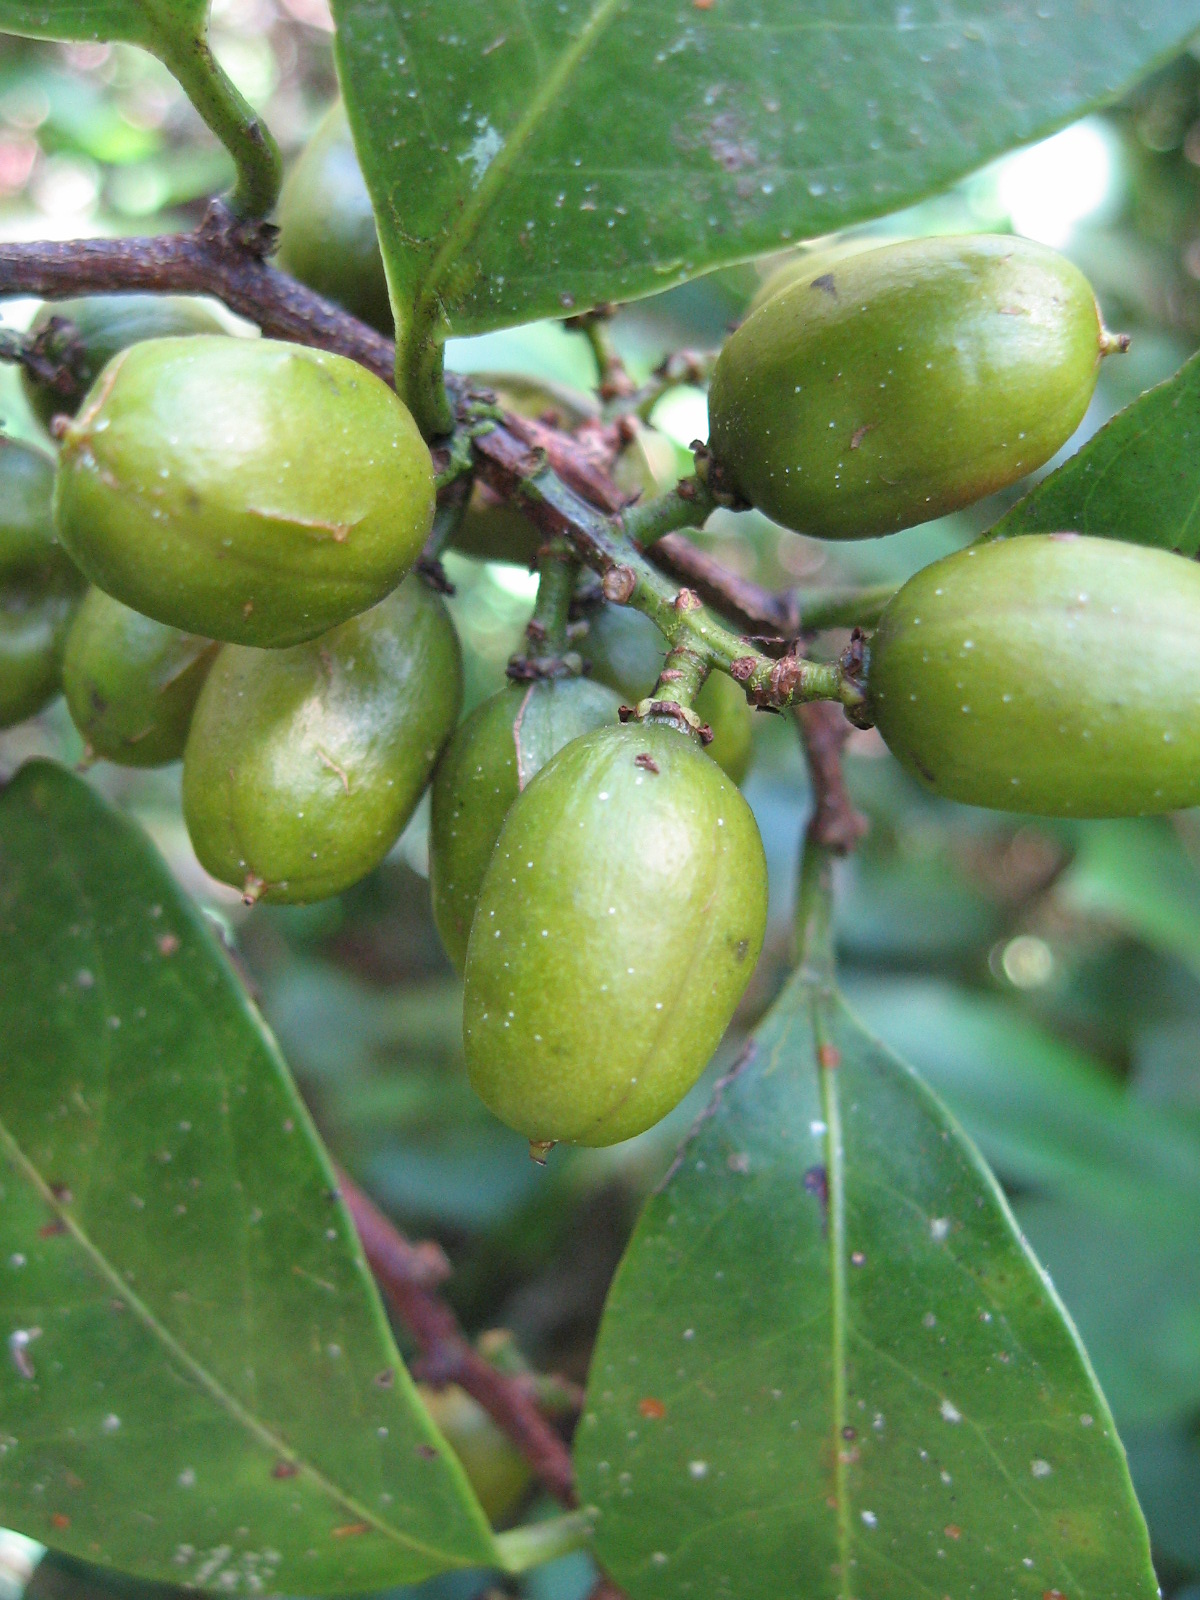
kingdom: Plantae
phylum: Tracheophyta
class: Magnoliopsida
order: Celastrales
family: Celastraceae
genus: Celastrus
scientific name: Celastrus vulcanicola
